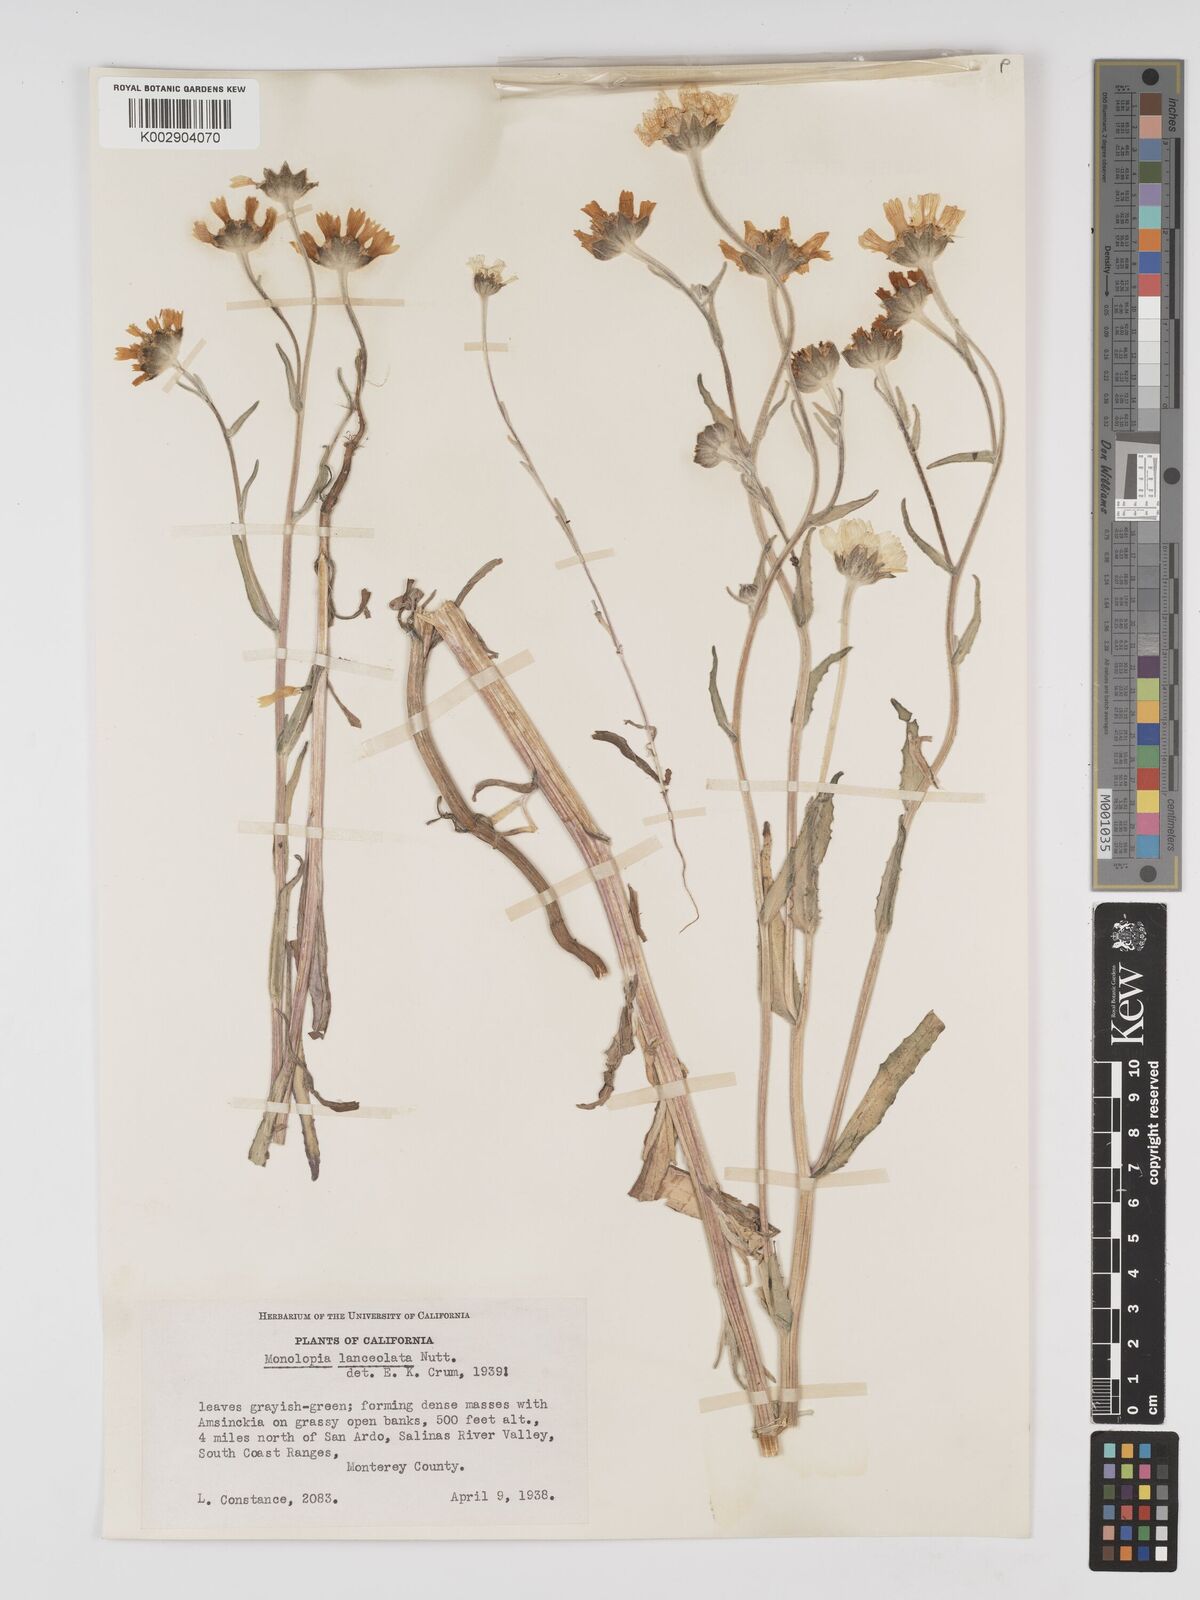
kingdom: Plantae
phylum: Tracheophyta
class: Magnoliopsida
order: Asterales
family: Asteraceae
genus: Monolopia
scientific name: Monolopia lanceolata
